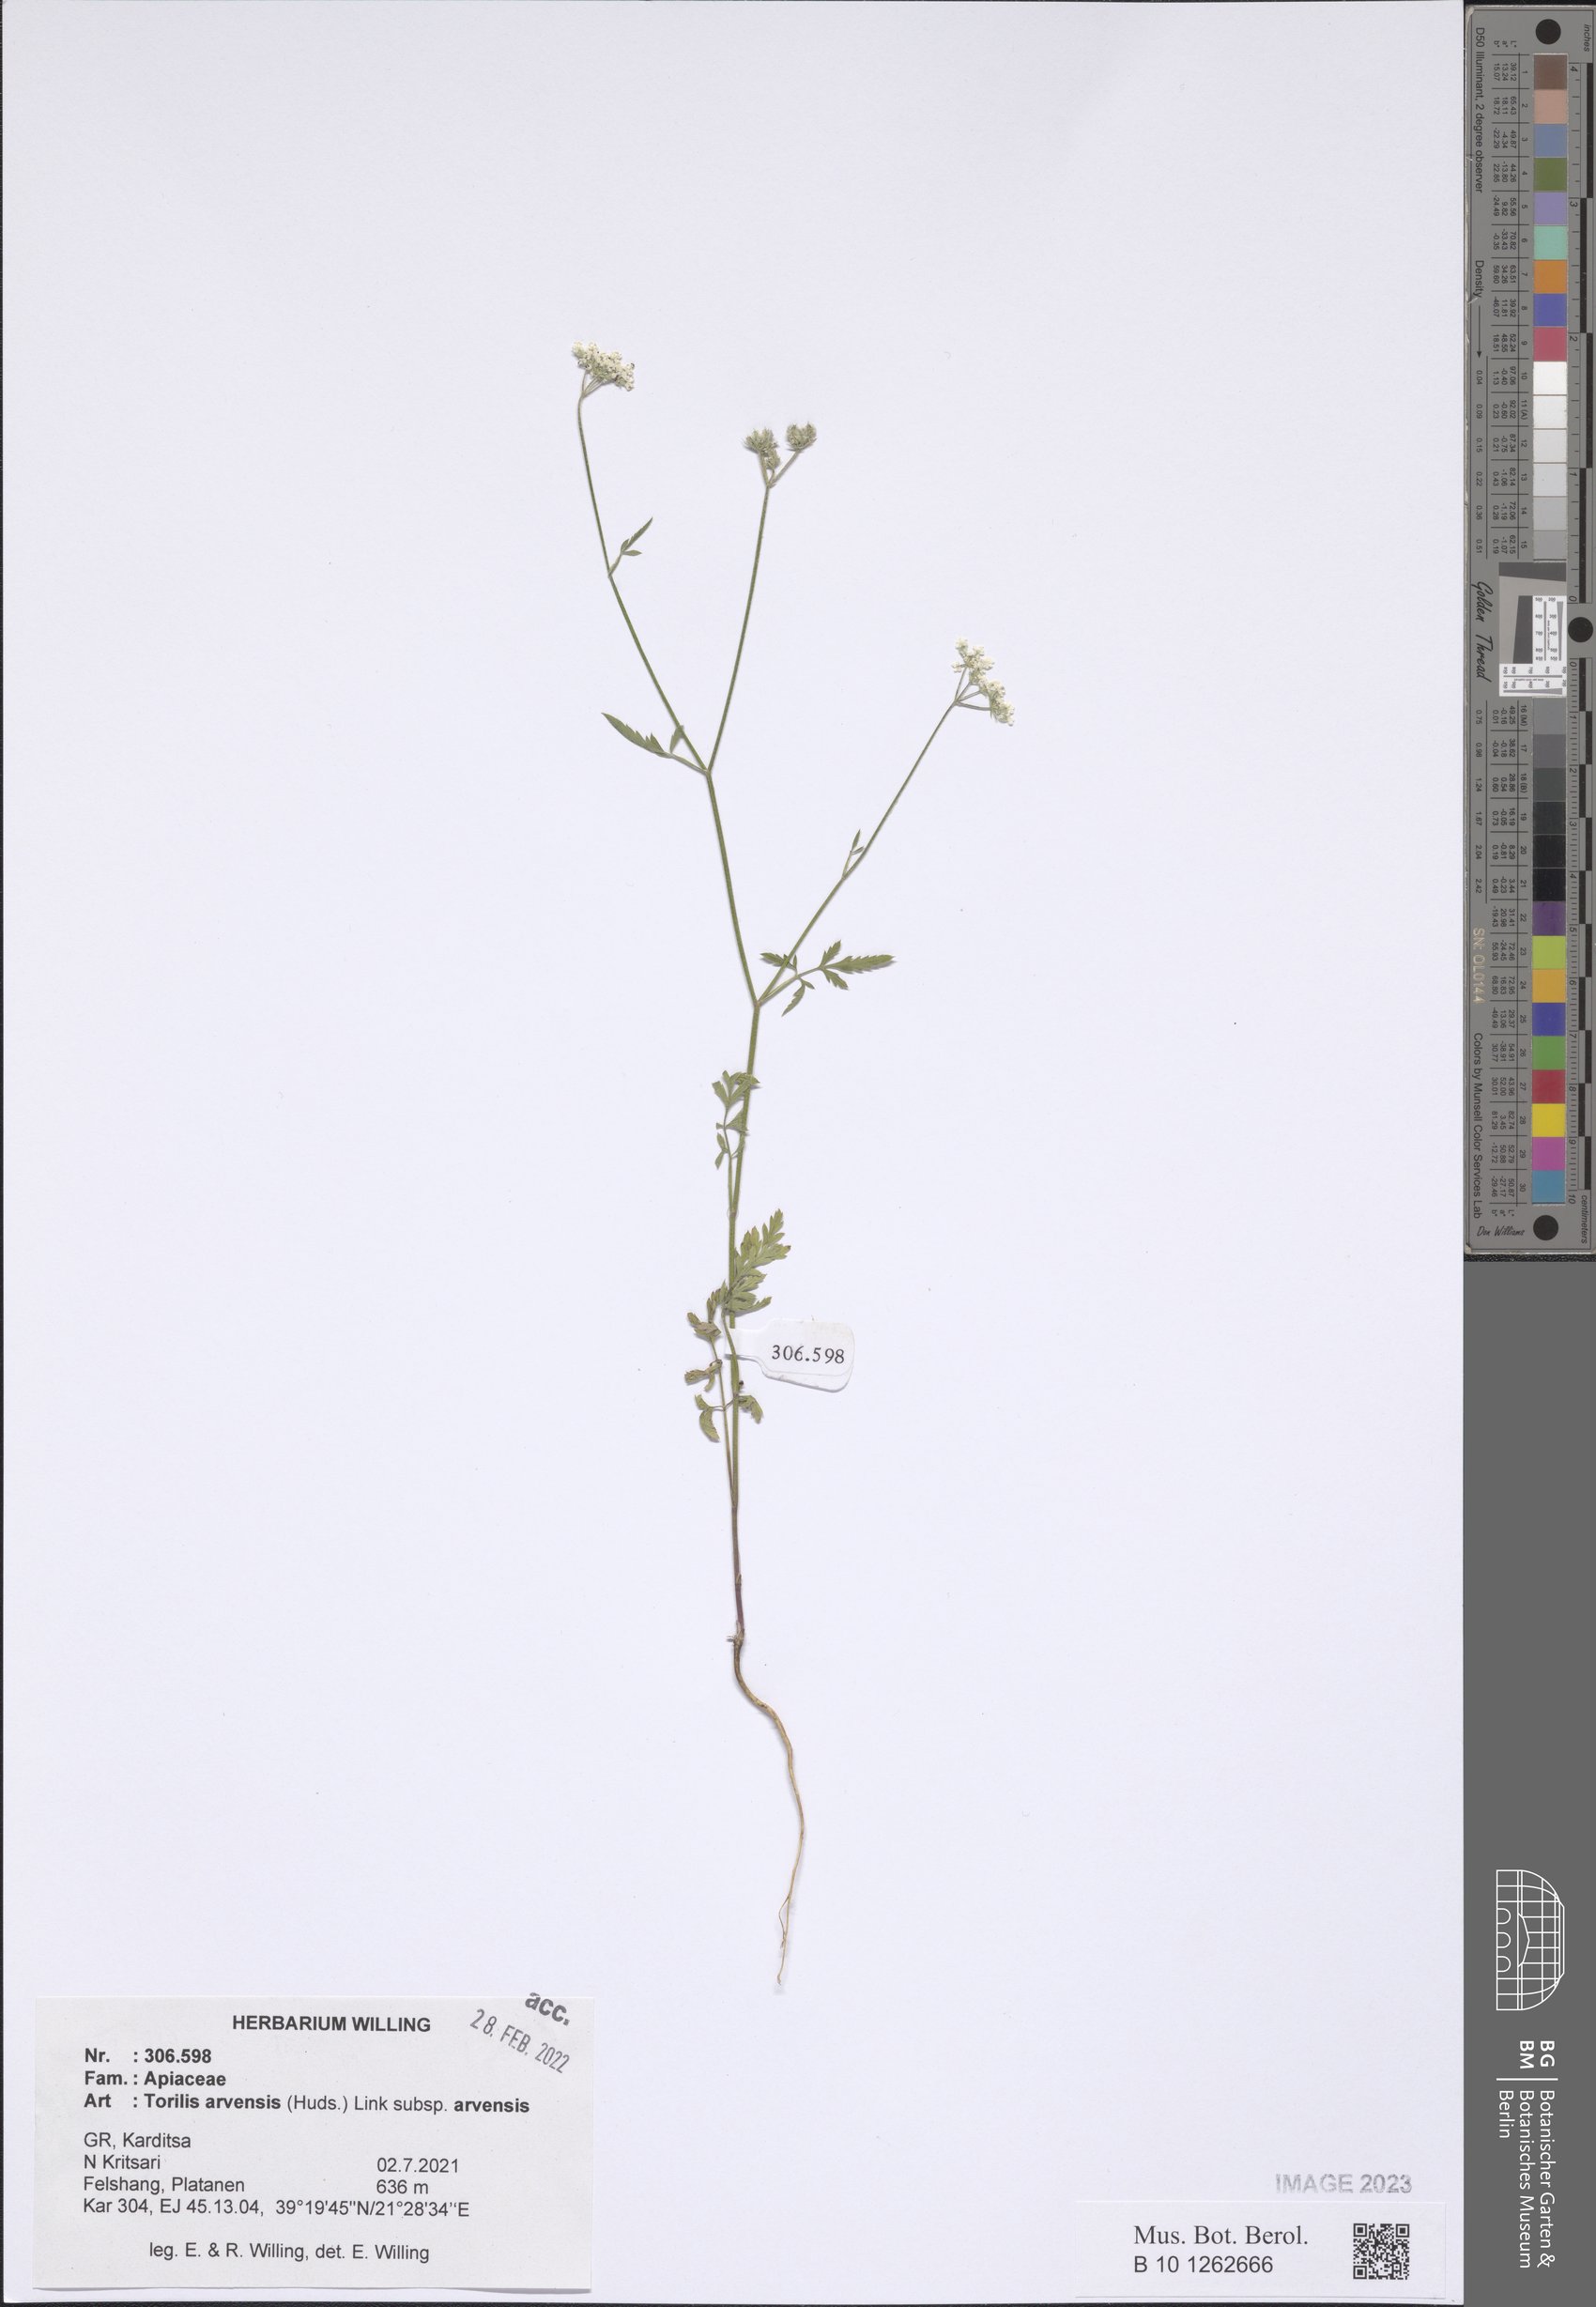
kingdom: Plantae
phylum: Tracheophyta
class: Magnoliopsida
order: Apiales
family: Apiaceae
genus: Torilis
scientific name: Torilis arvensis
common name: Spreading hedge-parsley
